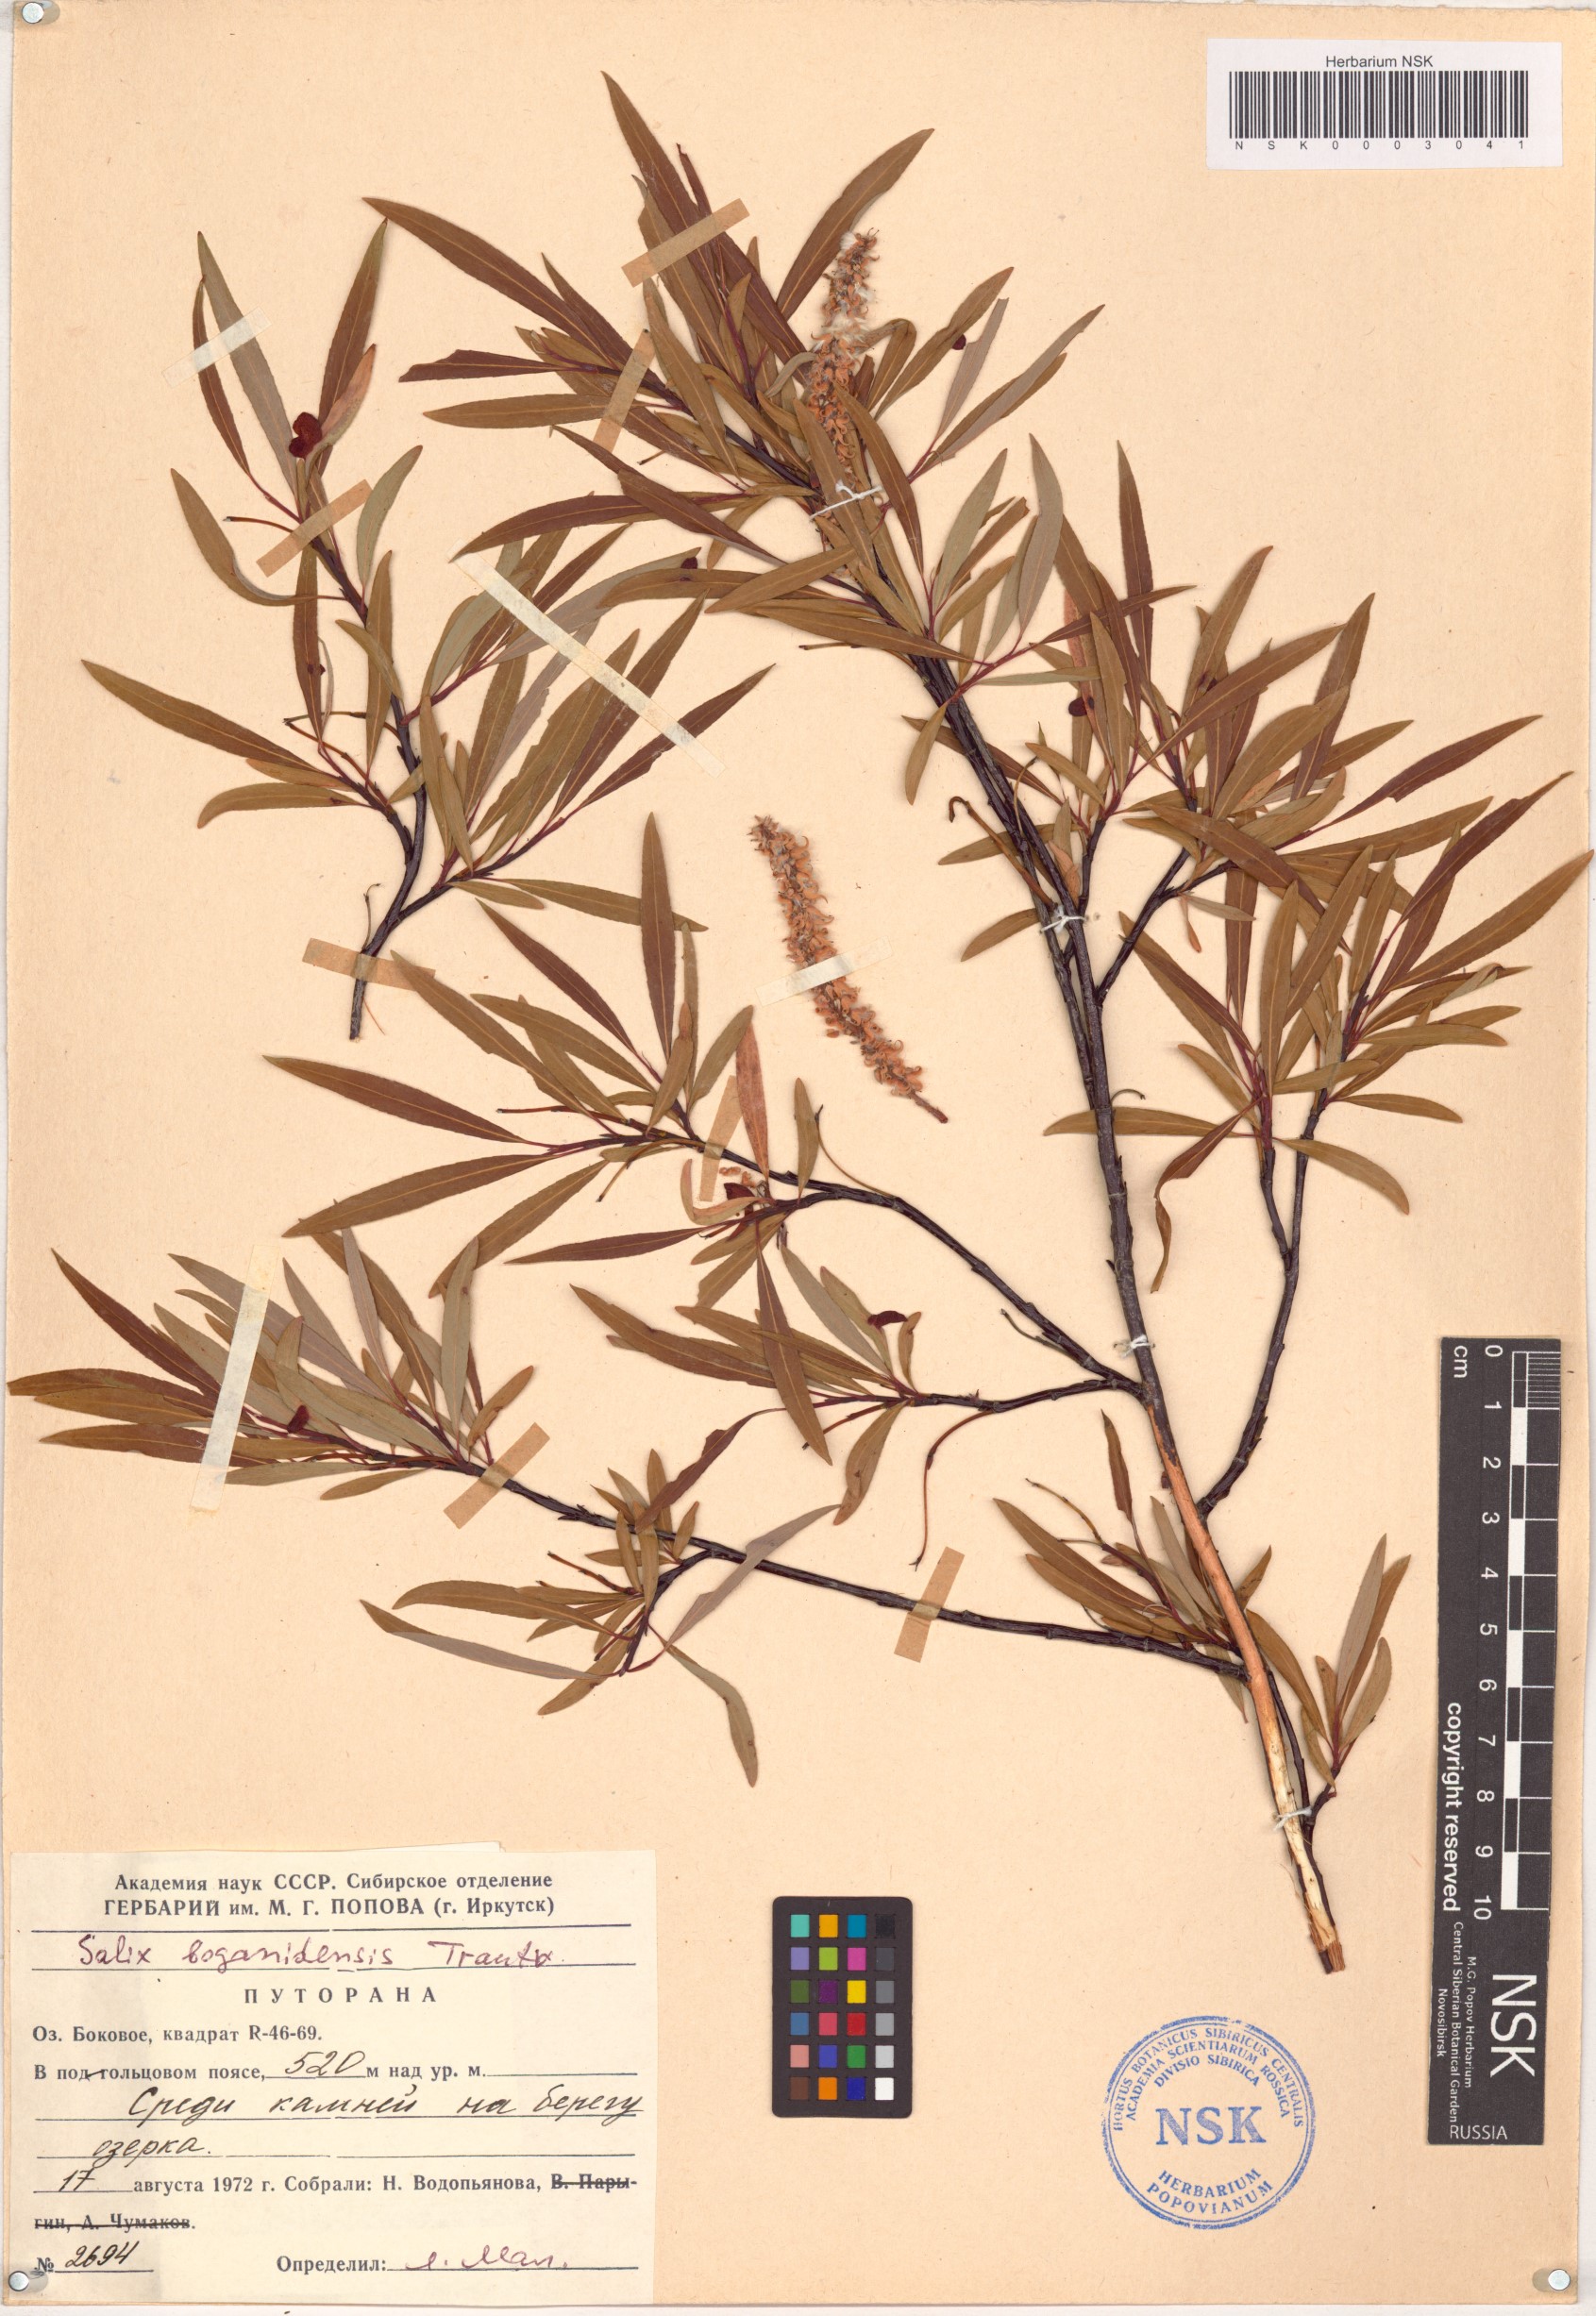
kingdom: Plantae
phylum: Tracheophyta
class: Magnoliopsida
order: Malpighiales
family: Salicaceae
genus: Salix
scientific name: Salix boganidensis
